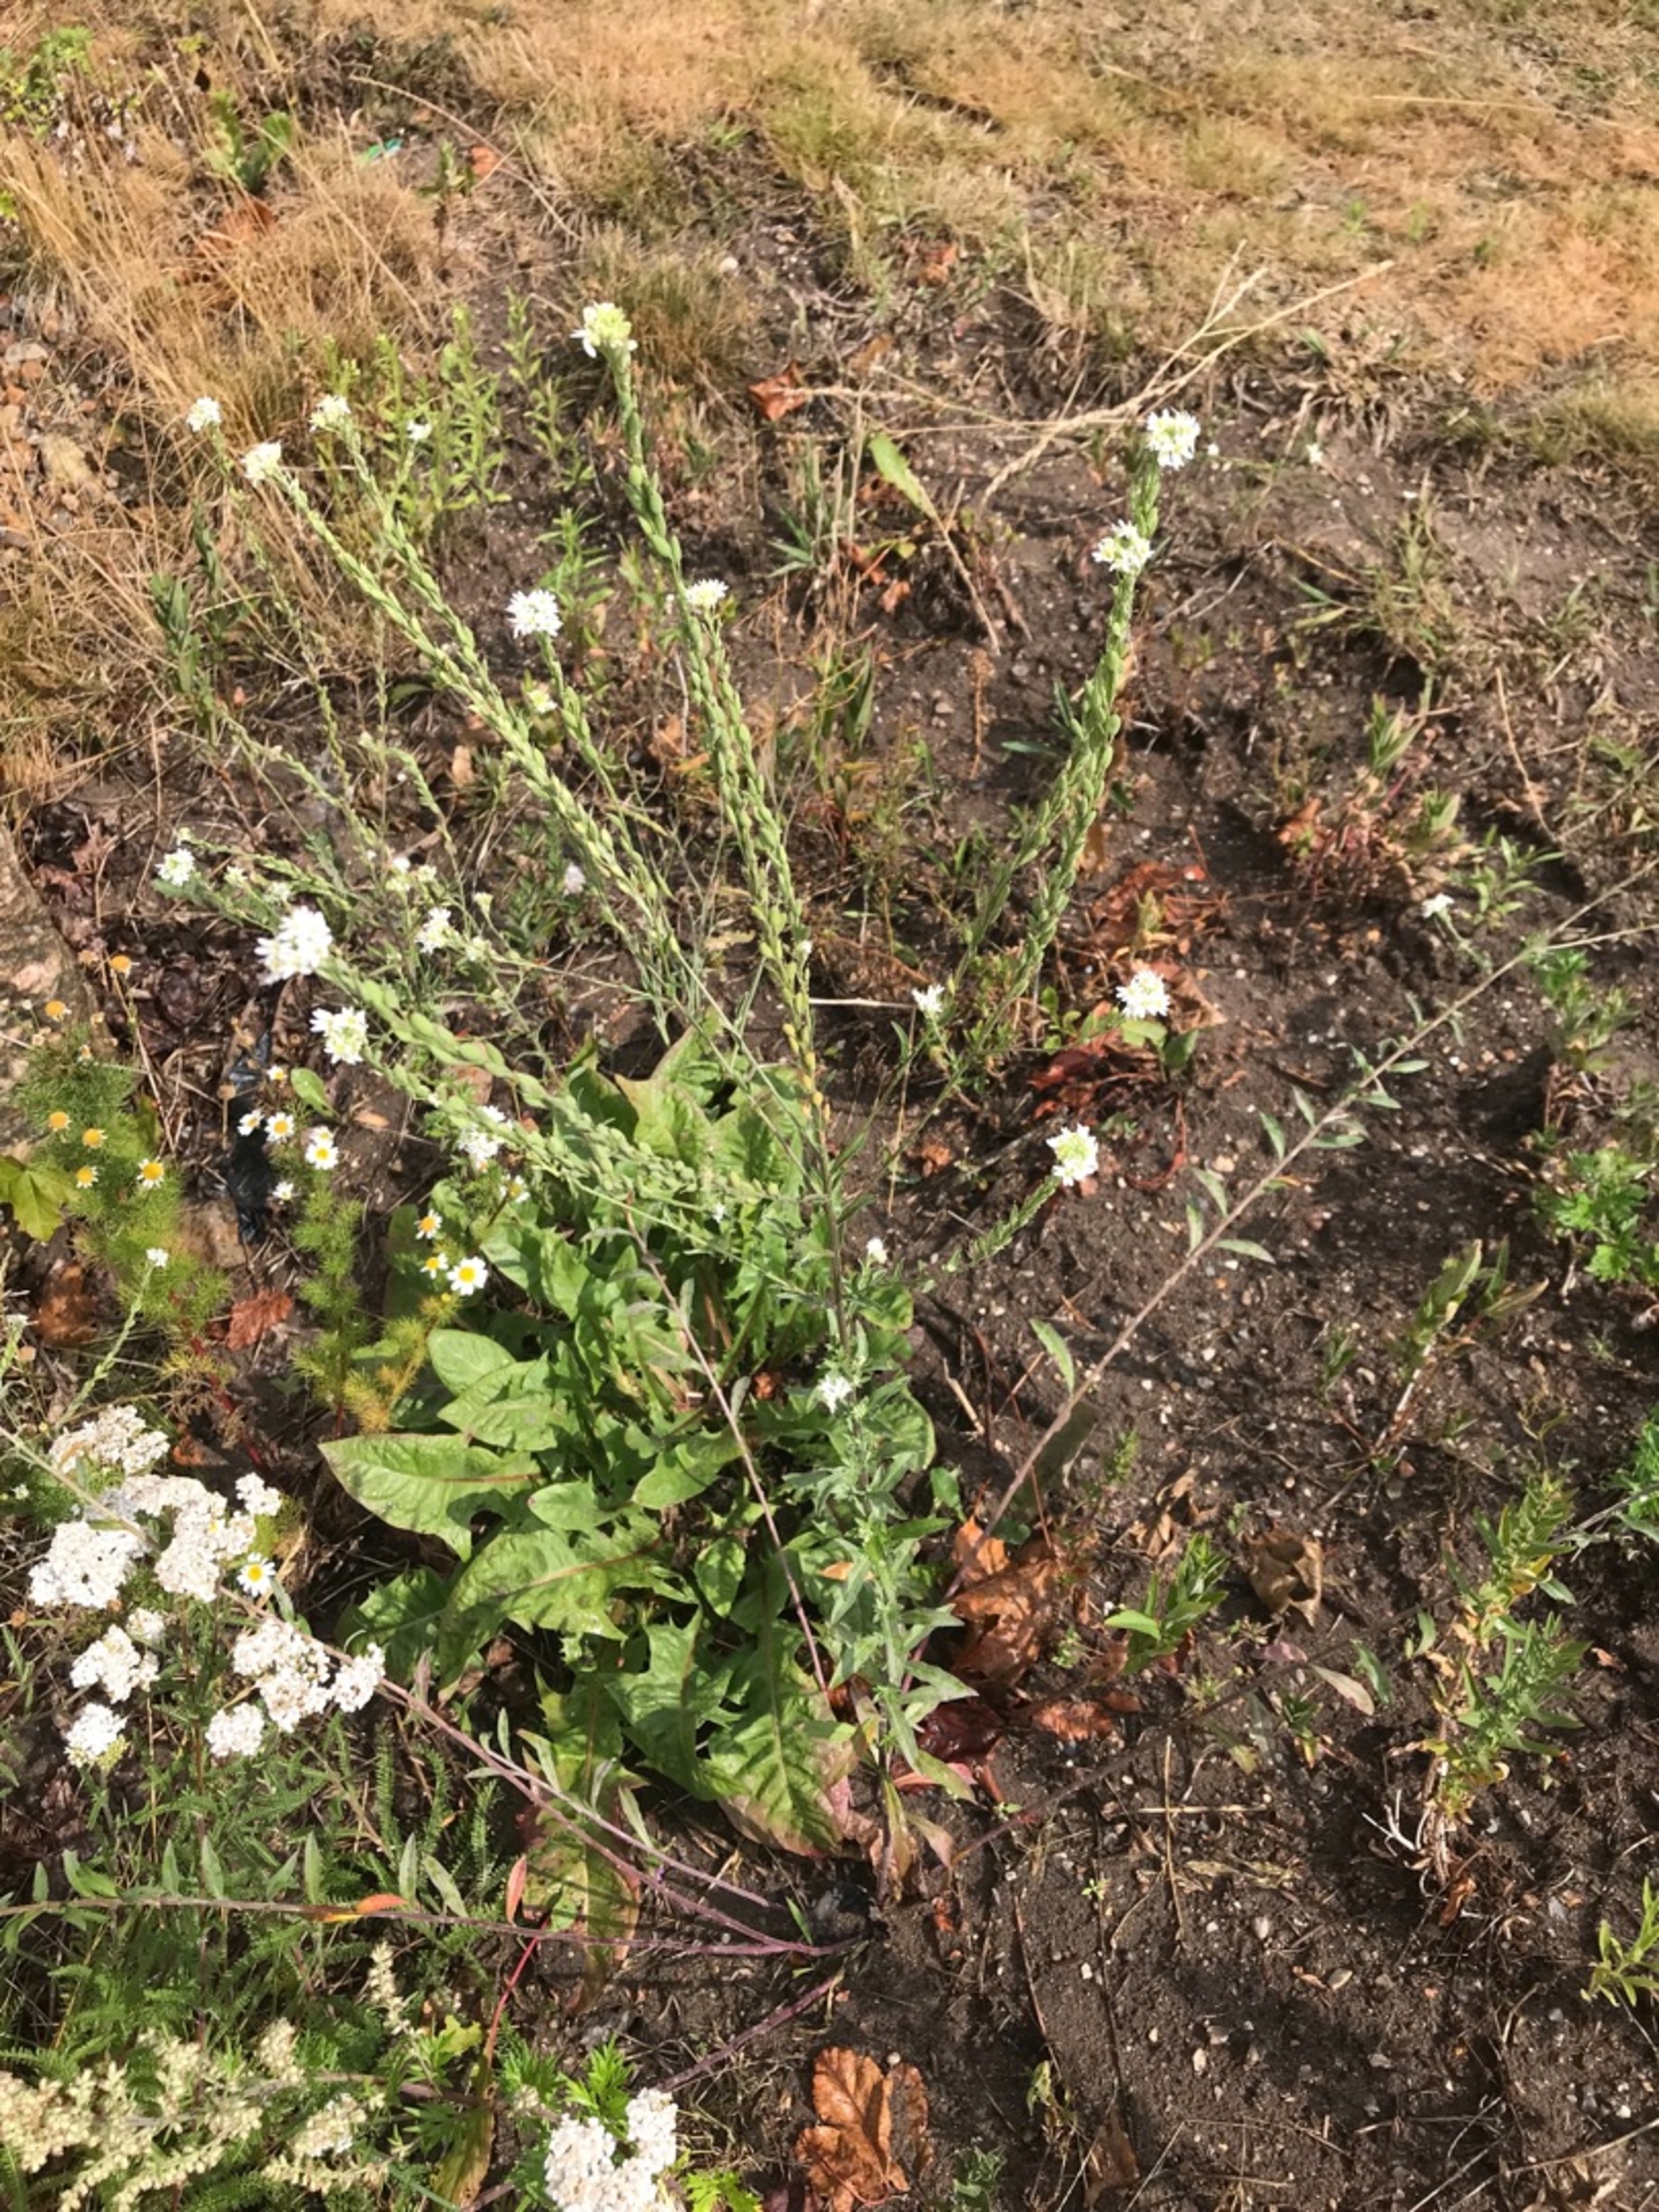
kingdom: Plantae
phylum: Tracheophyta
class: Magnoliopsida
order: Brassicales
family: Brassicaceae
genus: Berteroa
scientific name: Berteroa incana
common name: Kløvplade
